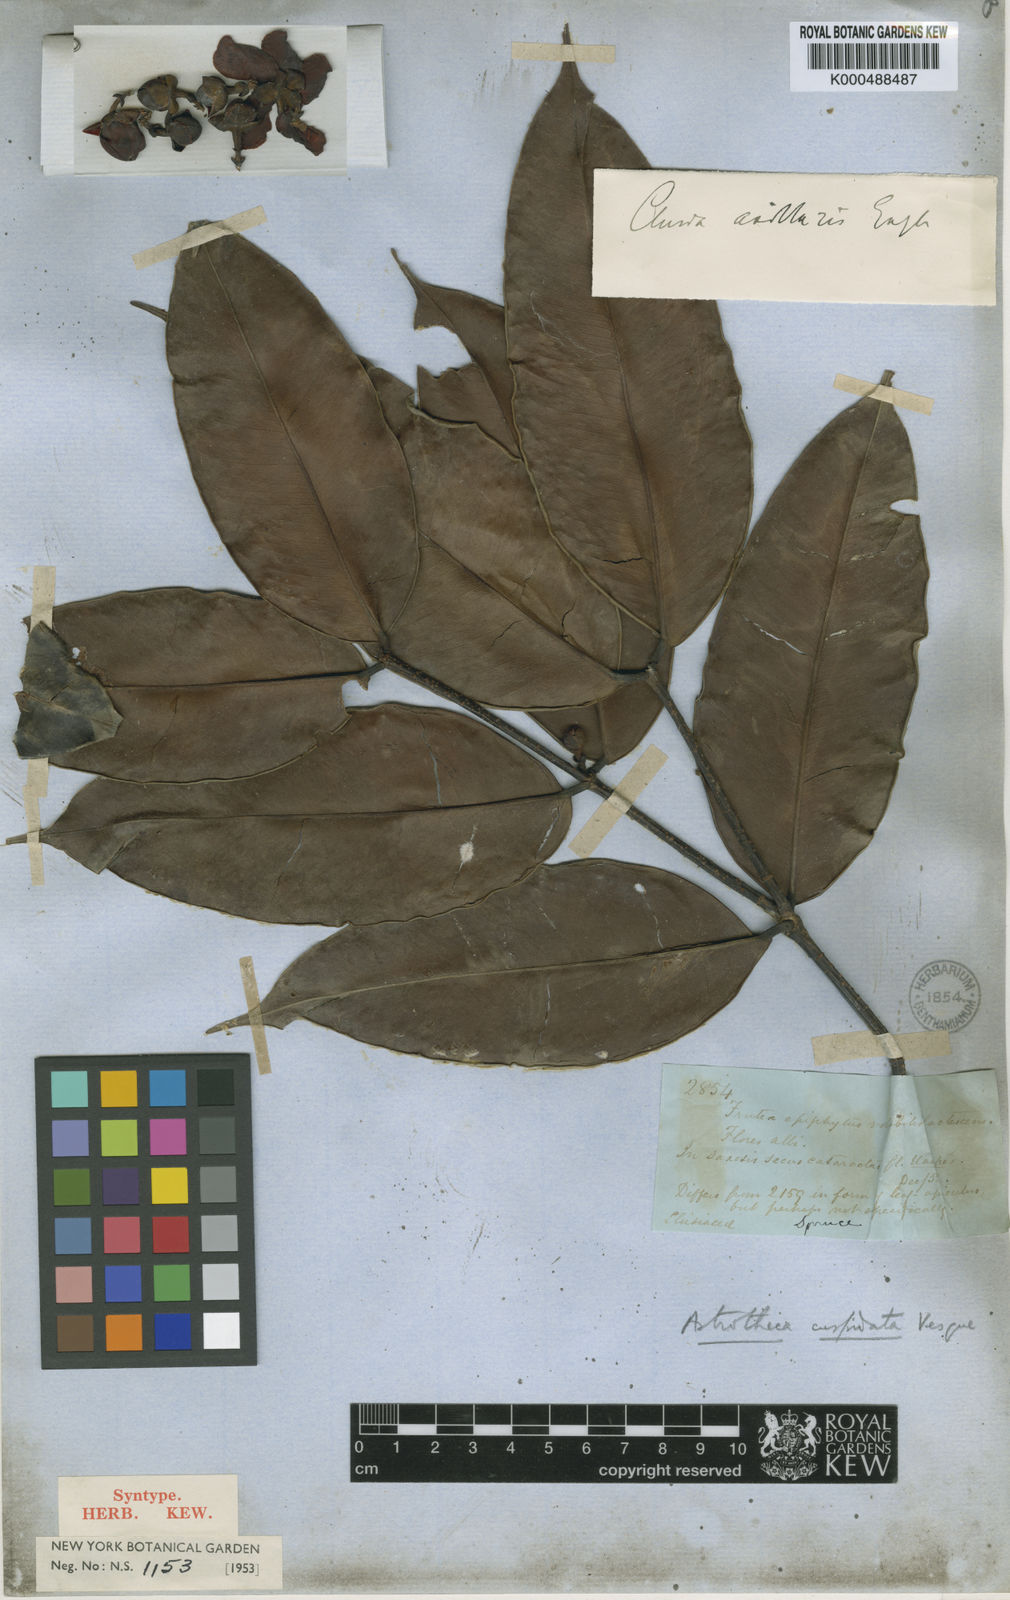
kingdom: Plantae
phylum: Tracheophyta
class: Magnoliopsida
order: Malpighiales
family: Calophyllaceae
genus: Clusiella
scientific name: Clusiella axillaris
